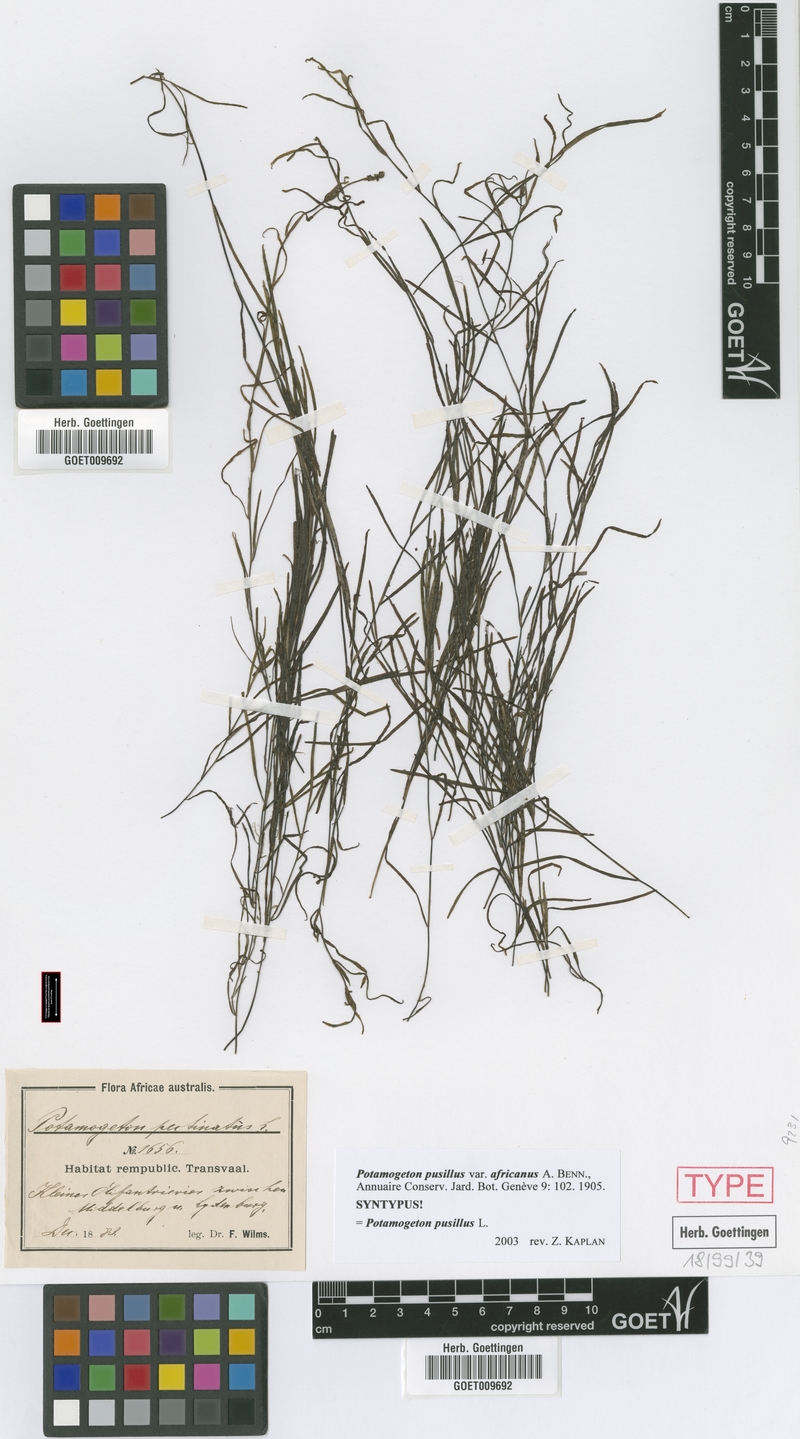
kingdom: Plantae
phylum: Tracheophyta
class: Liliopsida
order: Alismatales
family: Potamogetonaceae
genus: Potamogeton
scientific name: Potamogeton pusillus
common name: Lesser pondweed
